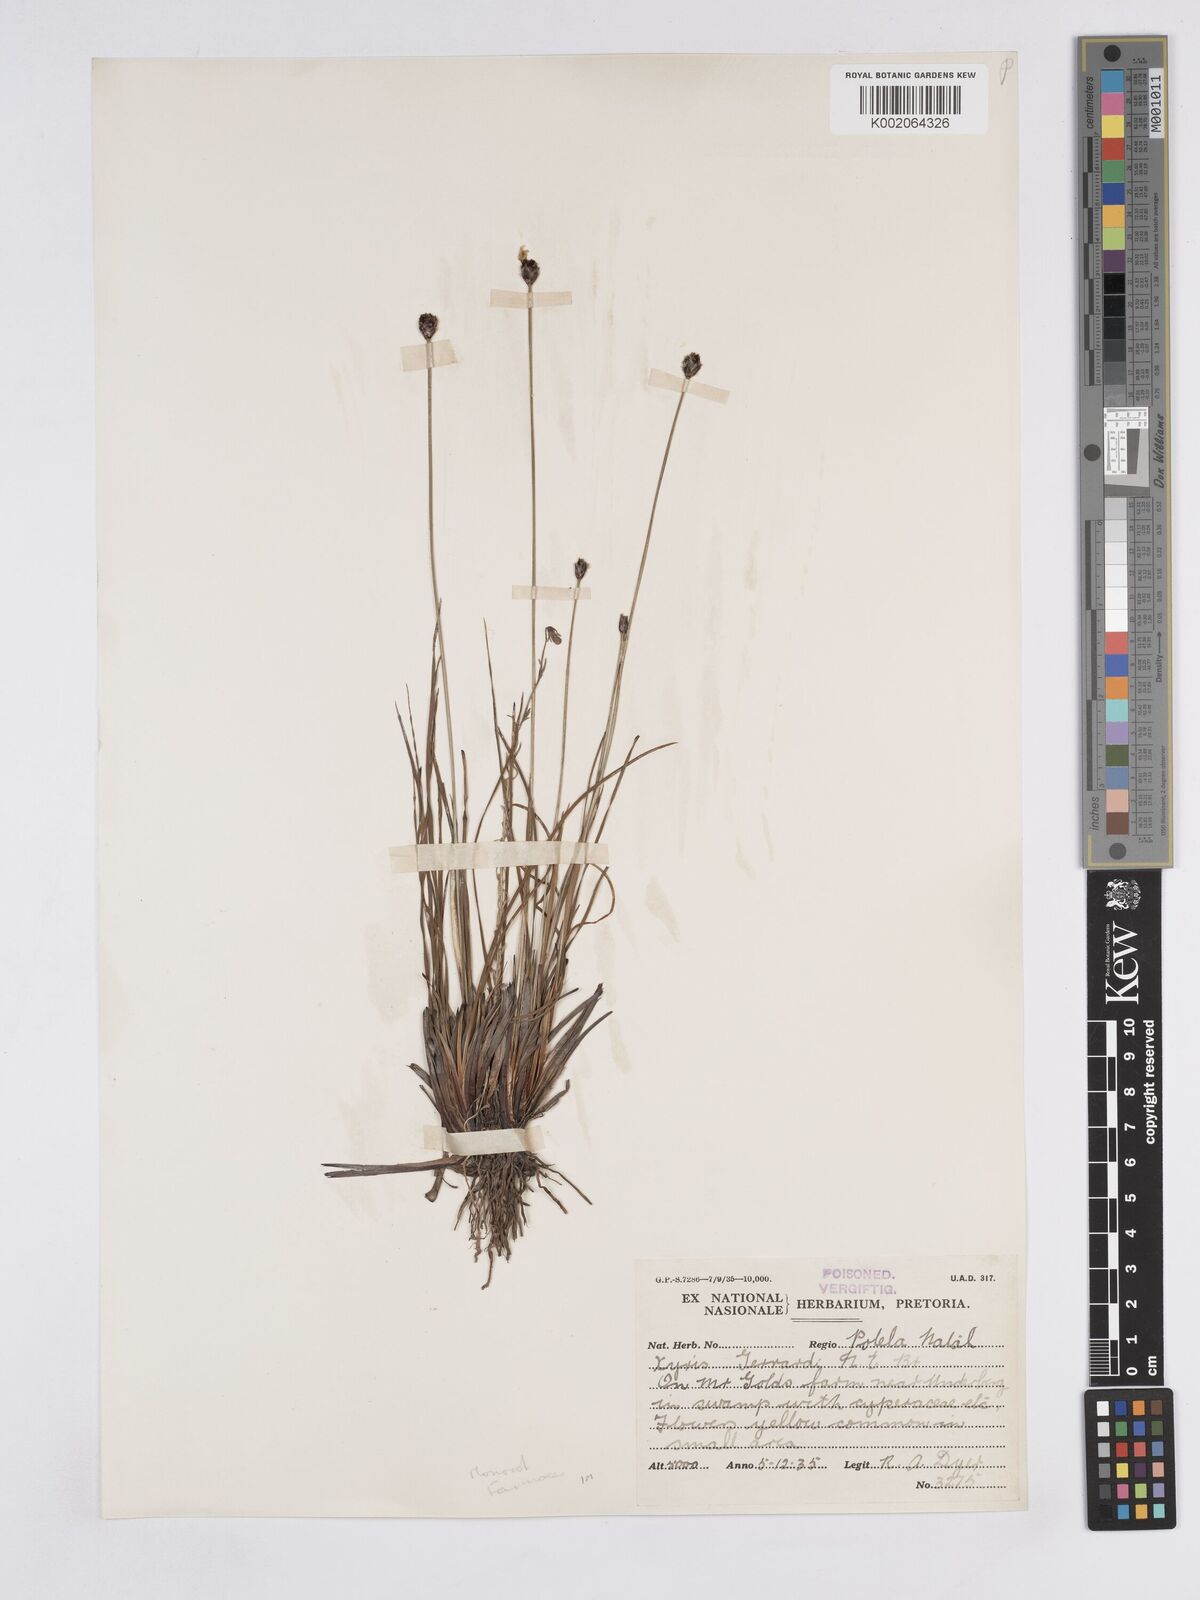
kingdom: Plantae
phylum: Tracheophyta
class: Liliopsida
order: Poales
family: Xyridaceae
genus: Xyris
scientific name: Xyris gerrardii
